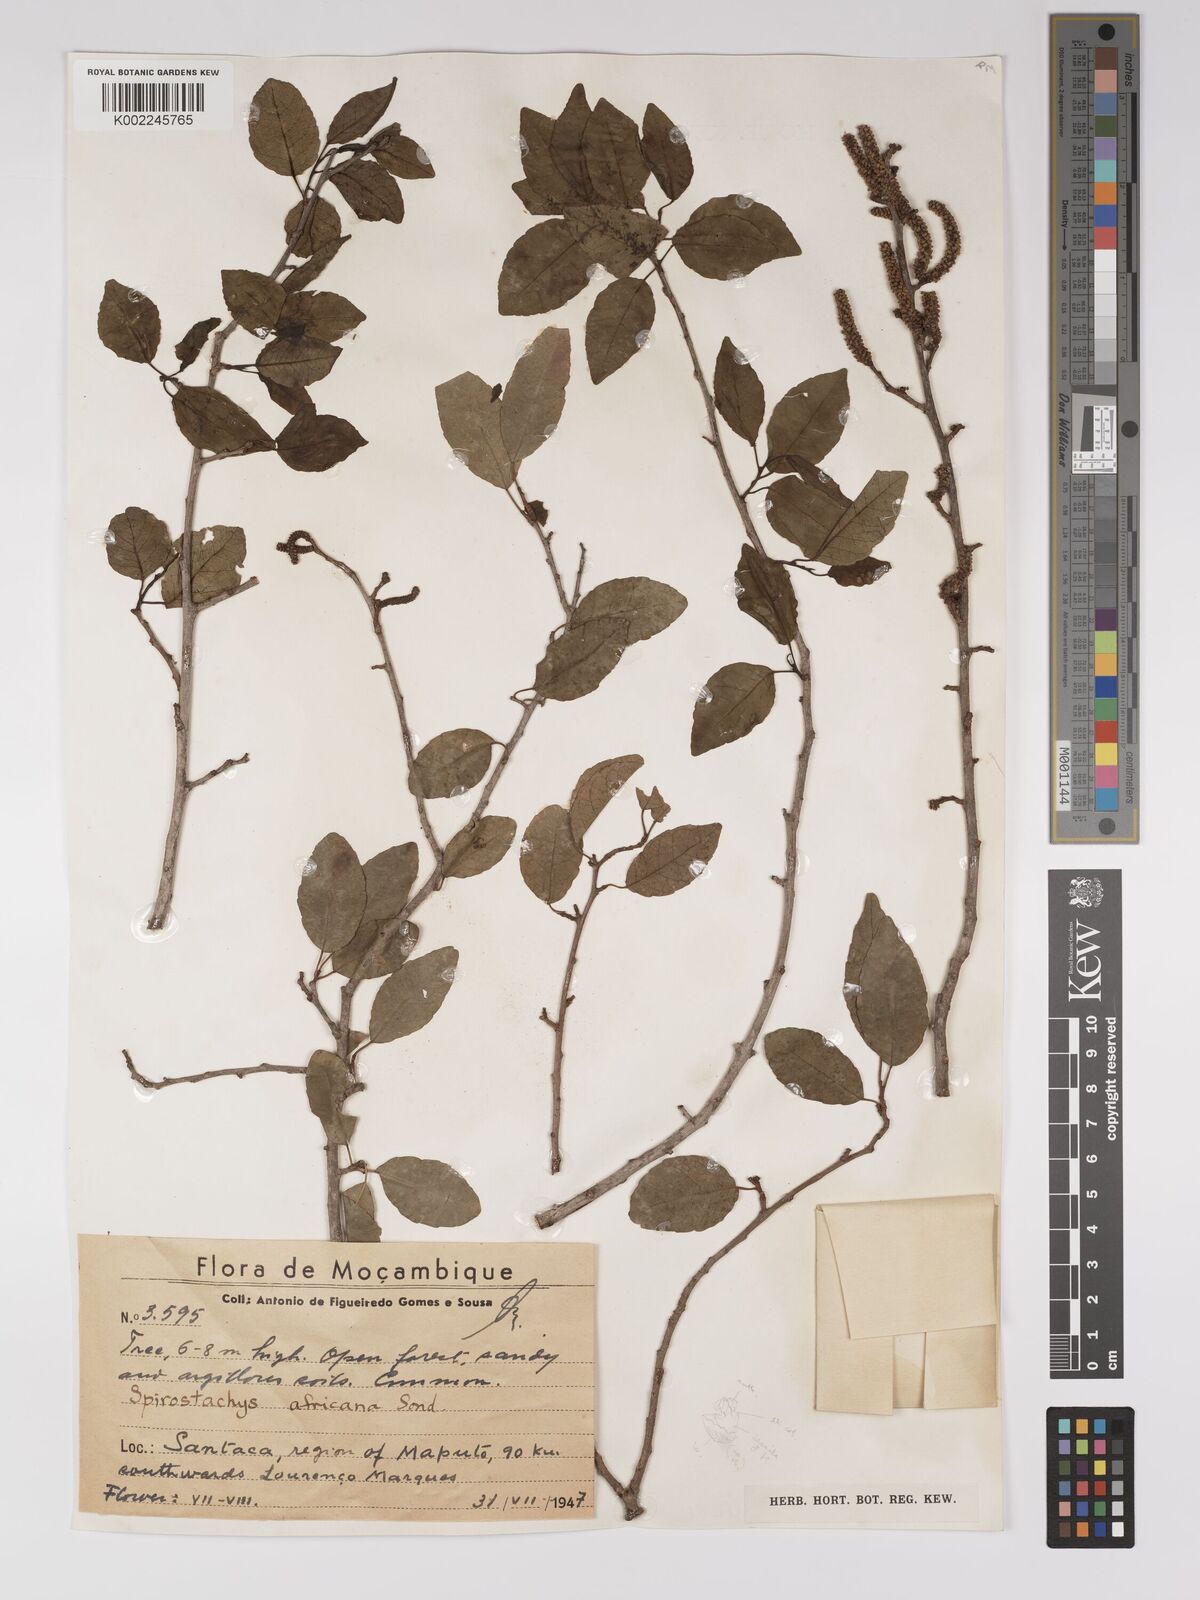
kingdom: Plantae
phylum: Tracheophyta
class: Magnoliopsida
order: Malpighiales
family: Euphorbiaceae
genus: Spirostachys
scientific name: Spirostachys africana
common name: Tamboti
